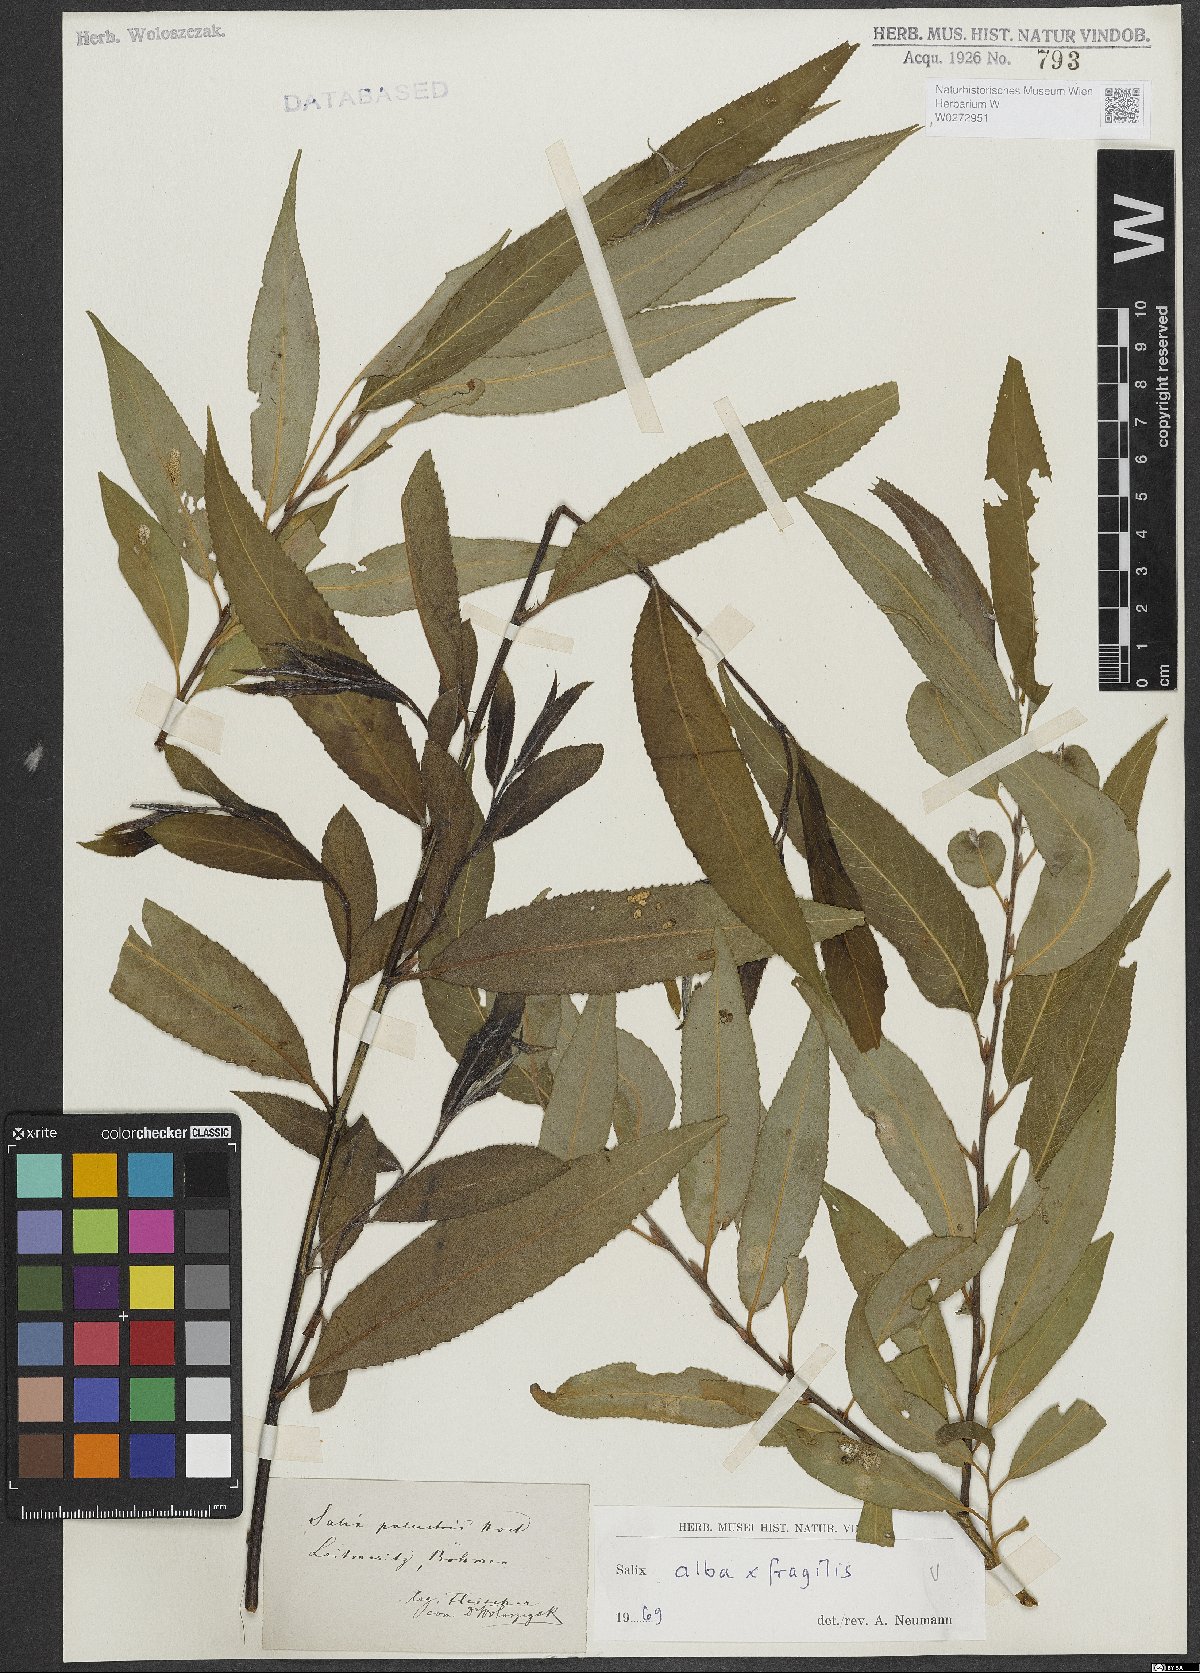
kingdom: Plantae
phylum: Tracheophyta
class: Magnoliopsida
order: Malpighiales
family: Salicaceae
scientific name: Salicaceae
